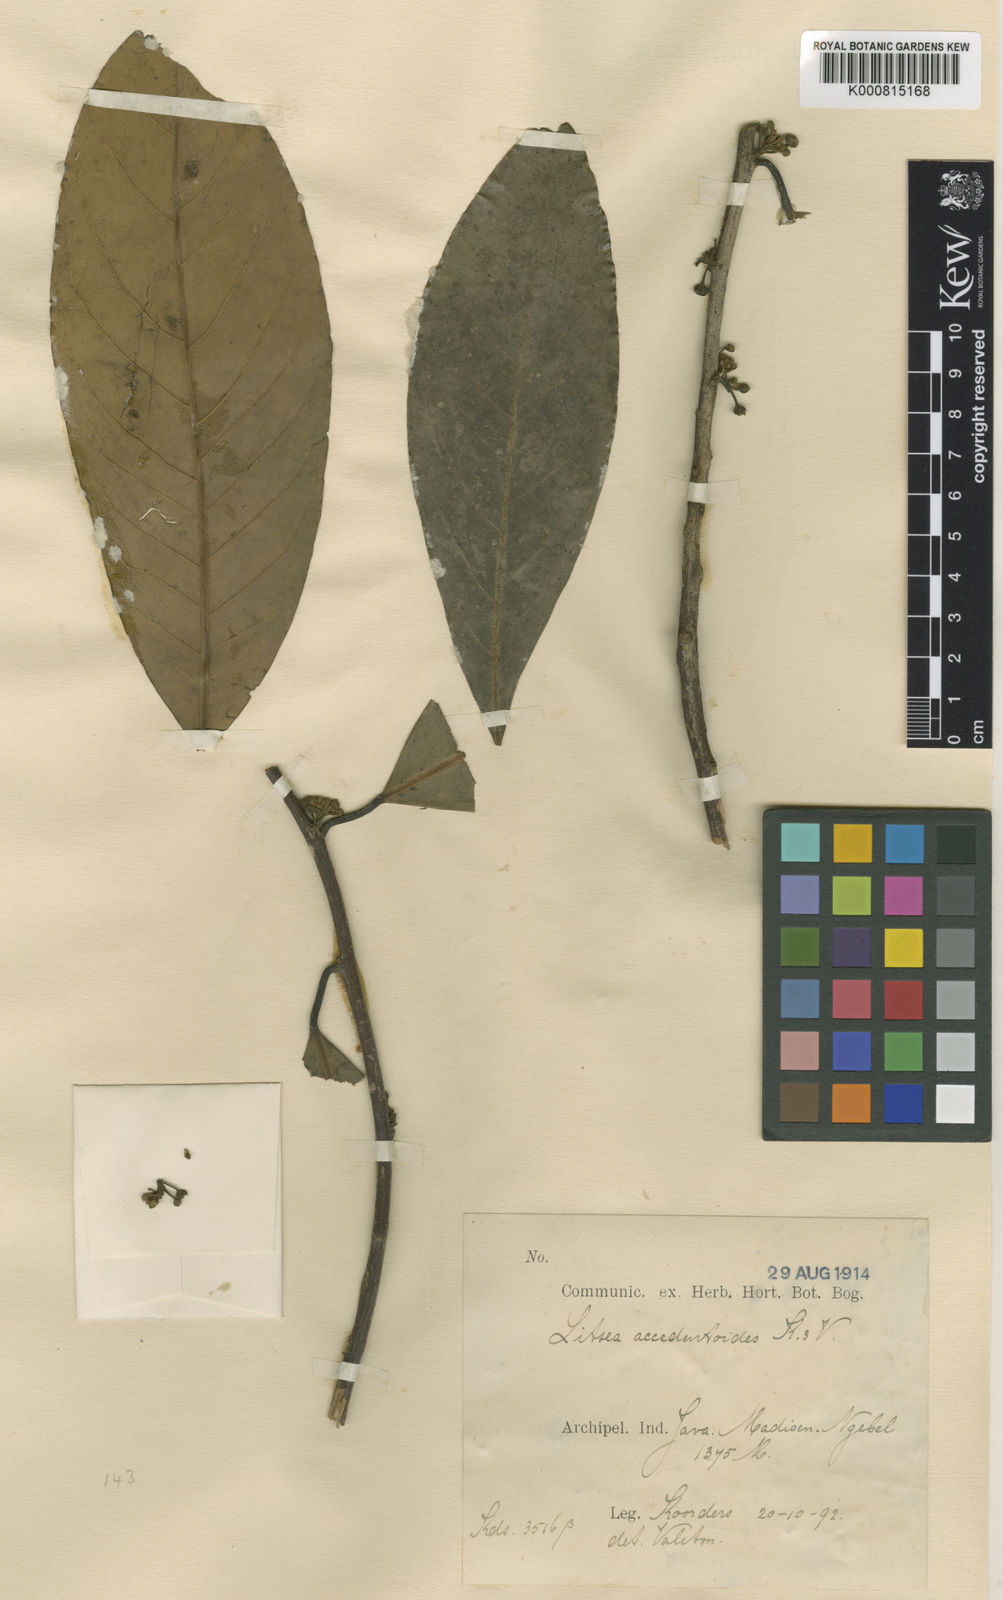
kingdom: Plantae
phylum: Tracheophyta
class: Magnoliopsida
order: Laurales
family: Lauraceae
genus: Litsea
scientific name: Litsea accedentoides
